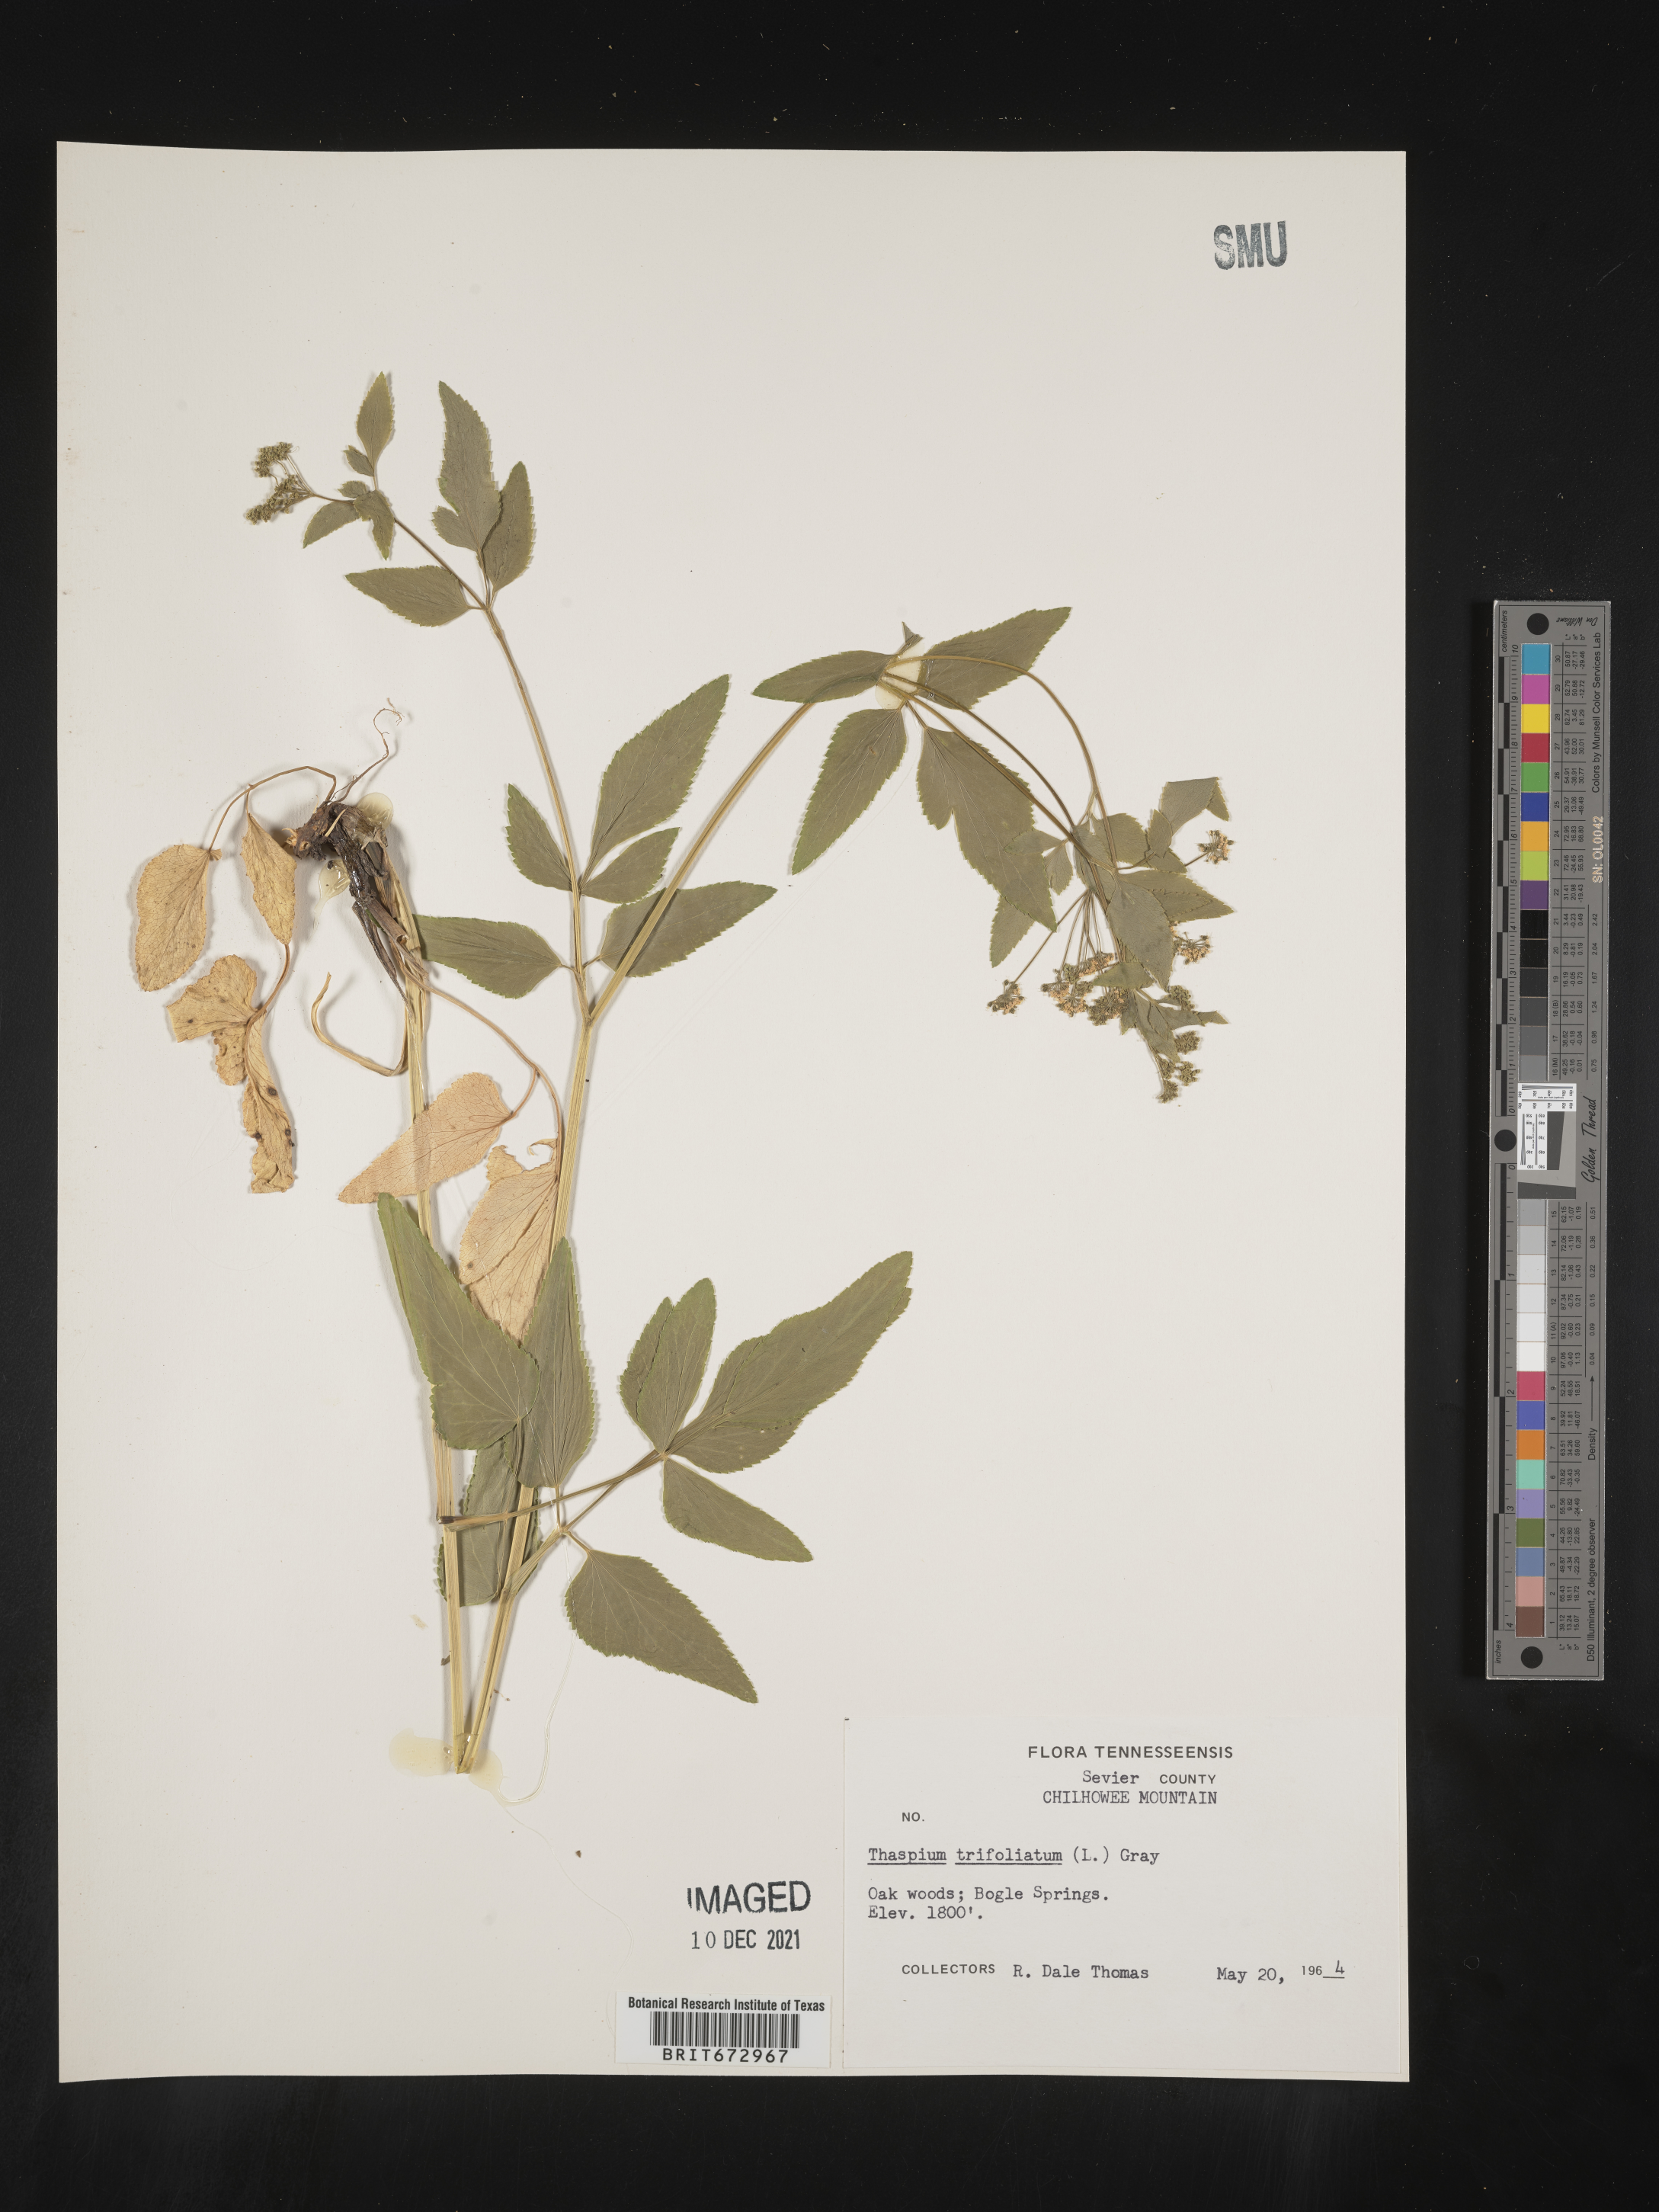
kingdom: Plantae
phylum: Tracheophyta
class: Magnoliopsida
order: Apiales
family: Apiaceae
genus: Thaspium
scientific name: Thaspium
